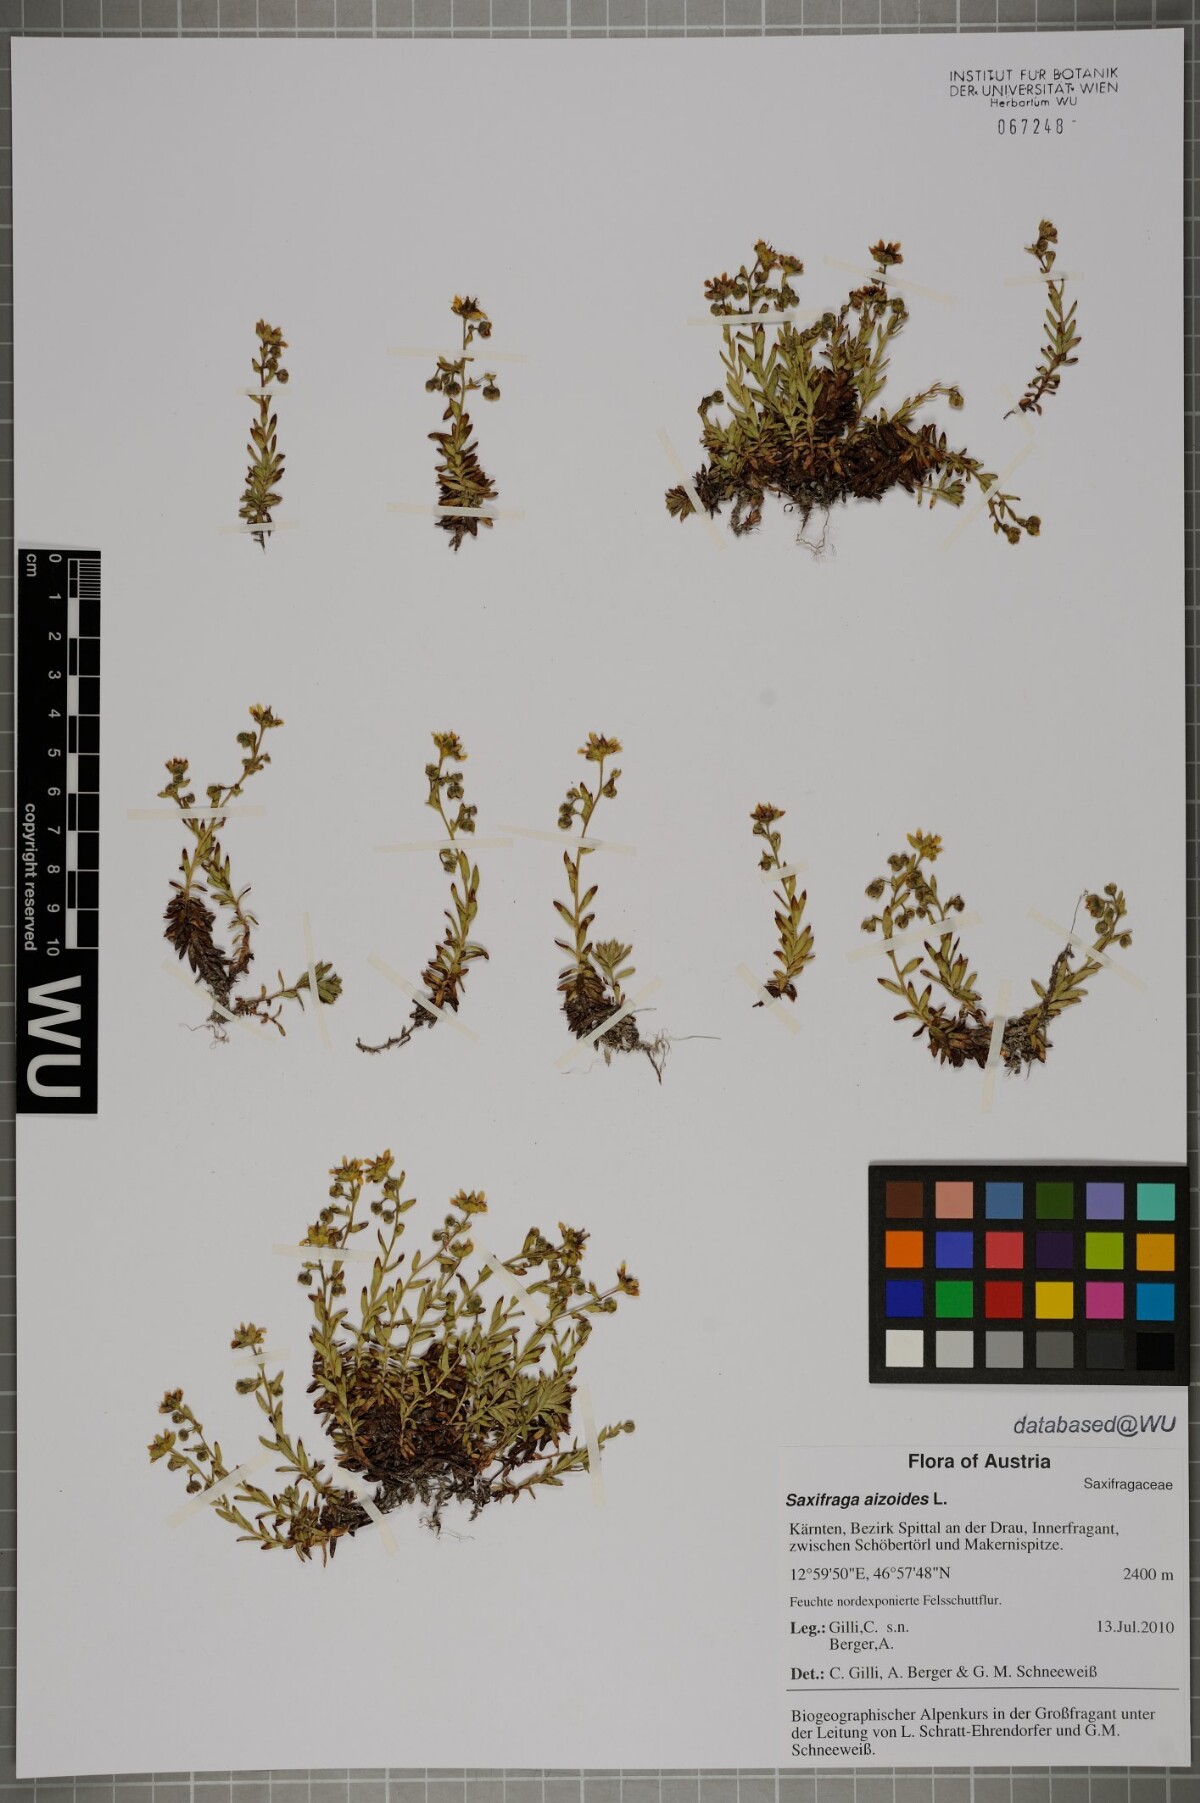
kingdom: Plantae
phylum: Tracheophyta
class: Magnoliopsida
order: Saxifragales
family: Saxifragaceae
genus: Saxifraga
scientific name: Saxifraga aizoides
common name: Yellow mountain saxifrage
